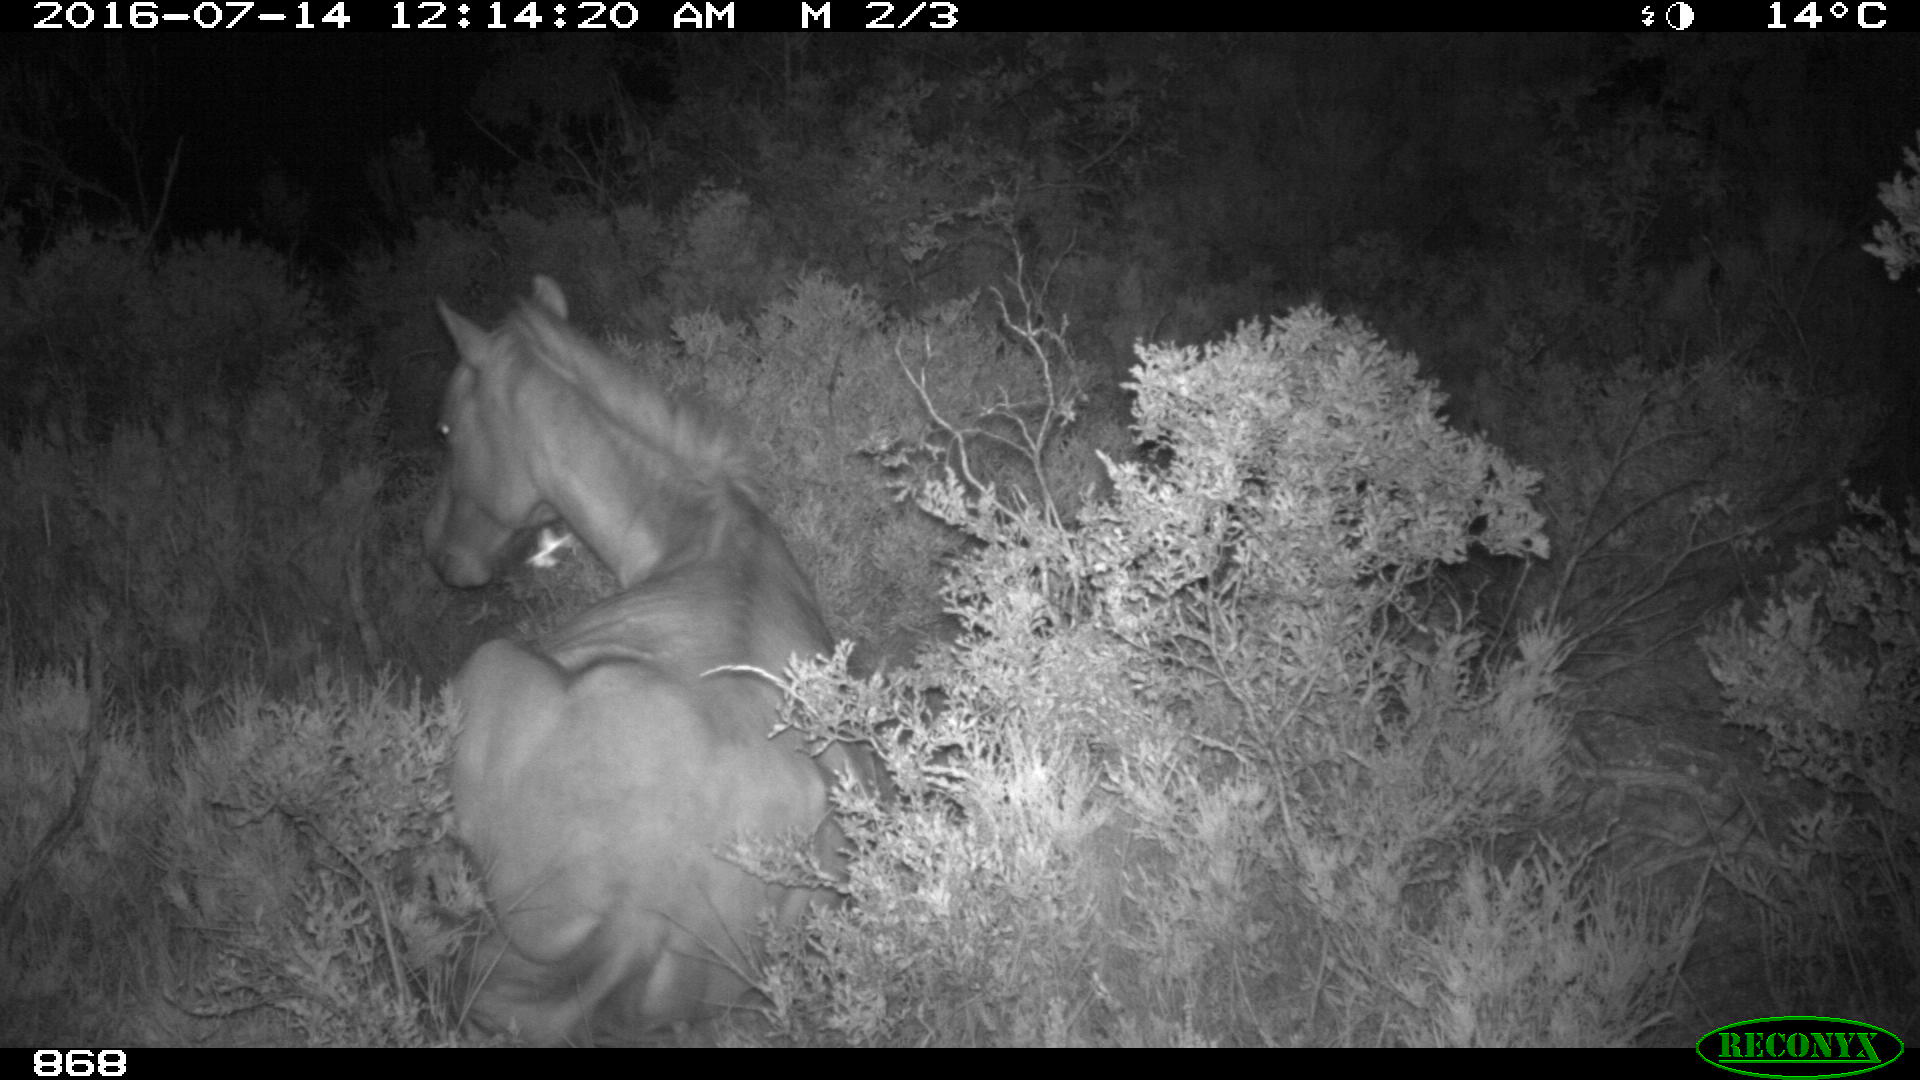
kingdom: Animalia
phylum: Chordata
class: Mammalia
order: Perissodactyla
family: Equidae
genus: Equus
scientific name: Equus caballus
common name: Horse
